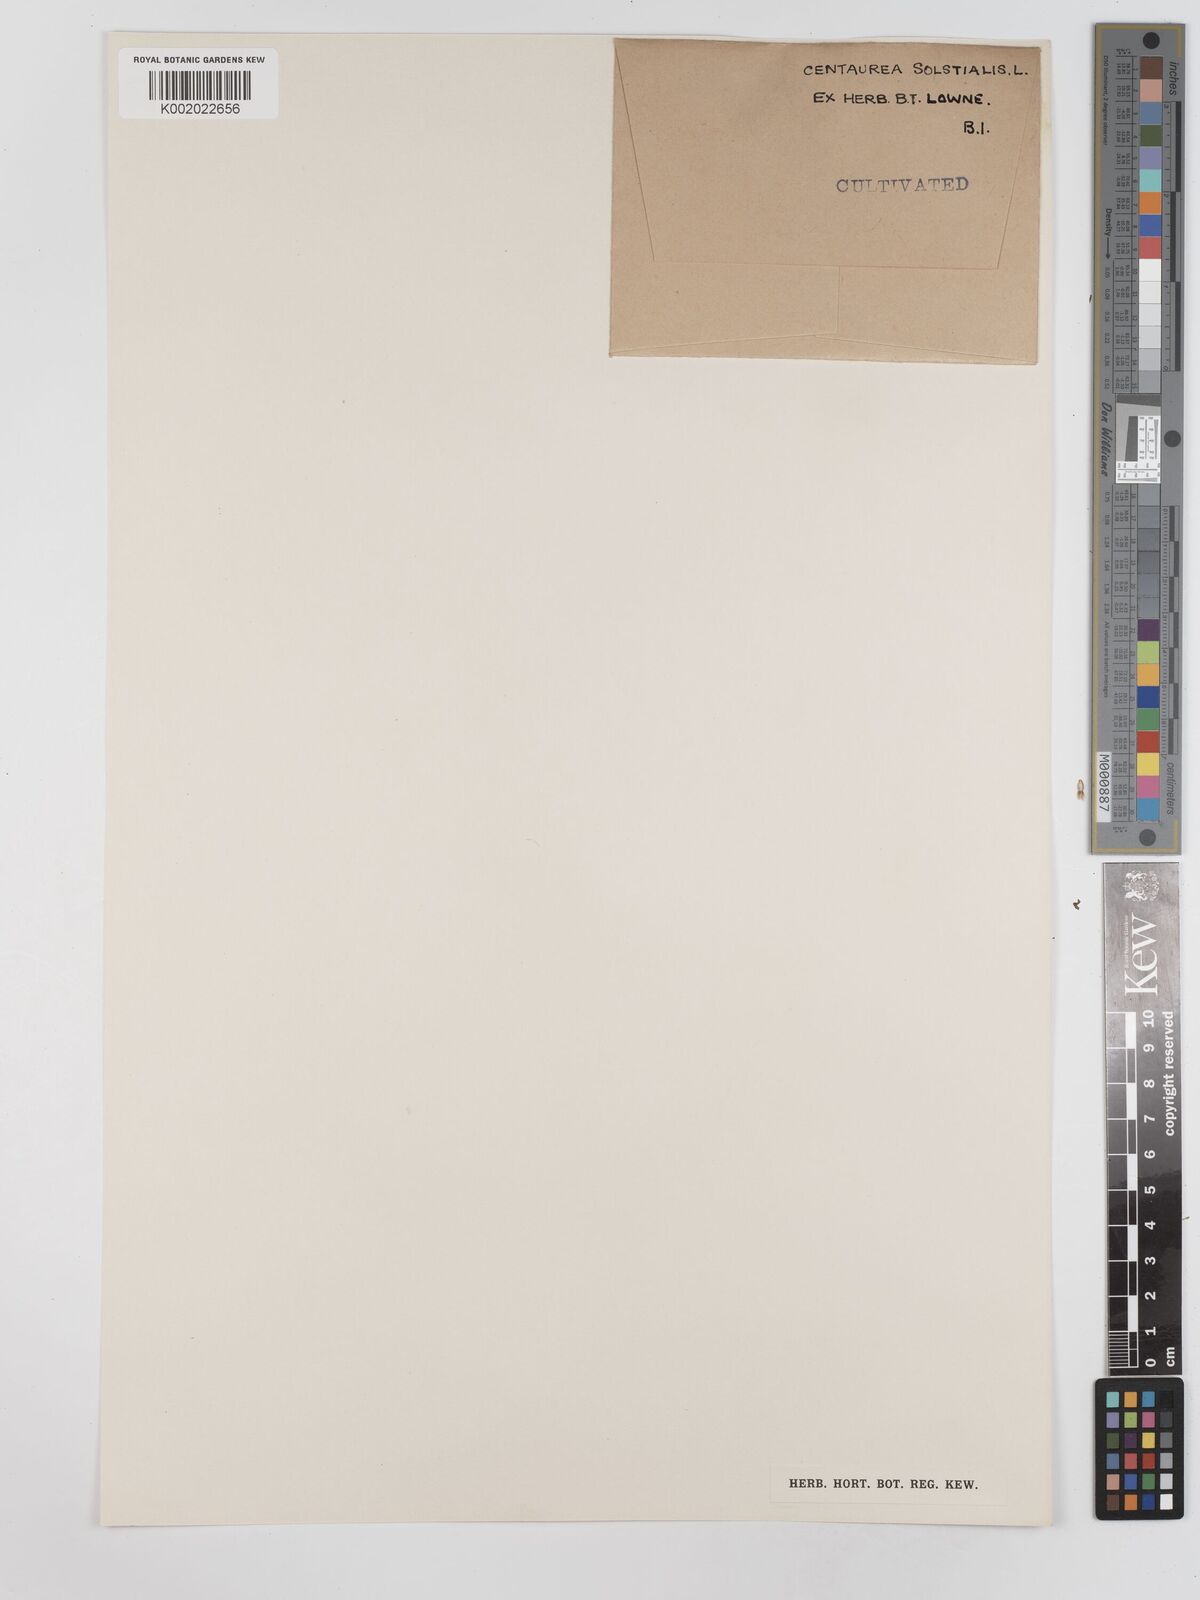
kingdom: Plantae
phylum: Tracheophyta
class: Magnoliopsida
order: Asterales
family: Asteraceae
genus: Centaurea
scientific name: Centaurea solstitialis
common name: Yellow star-thistle
